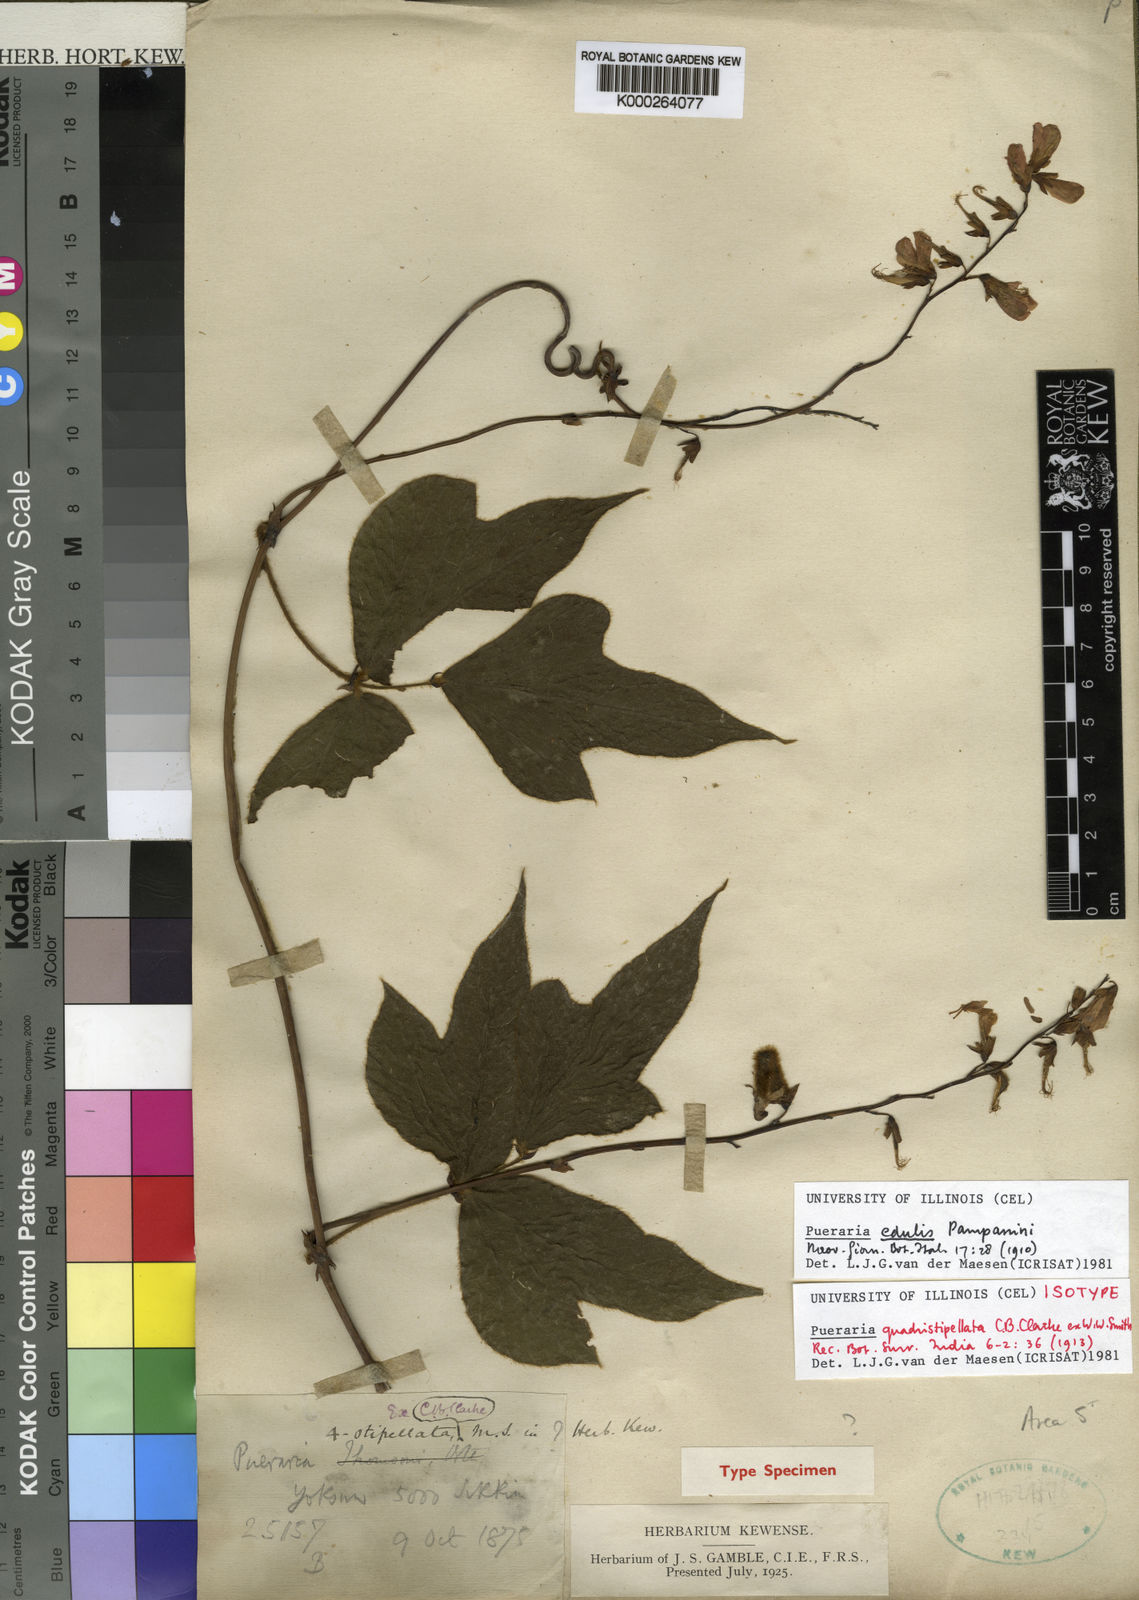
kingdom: Plantae
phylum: Tracheophyta
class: Magnoliopsida
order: Fabales
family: Fabaceae
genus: Pueraria
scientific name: Pueraria
